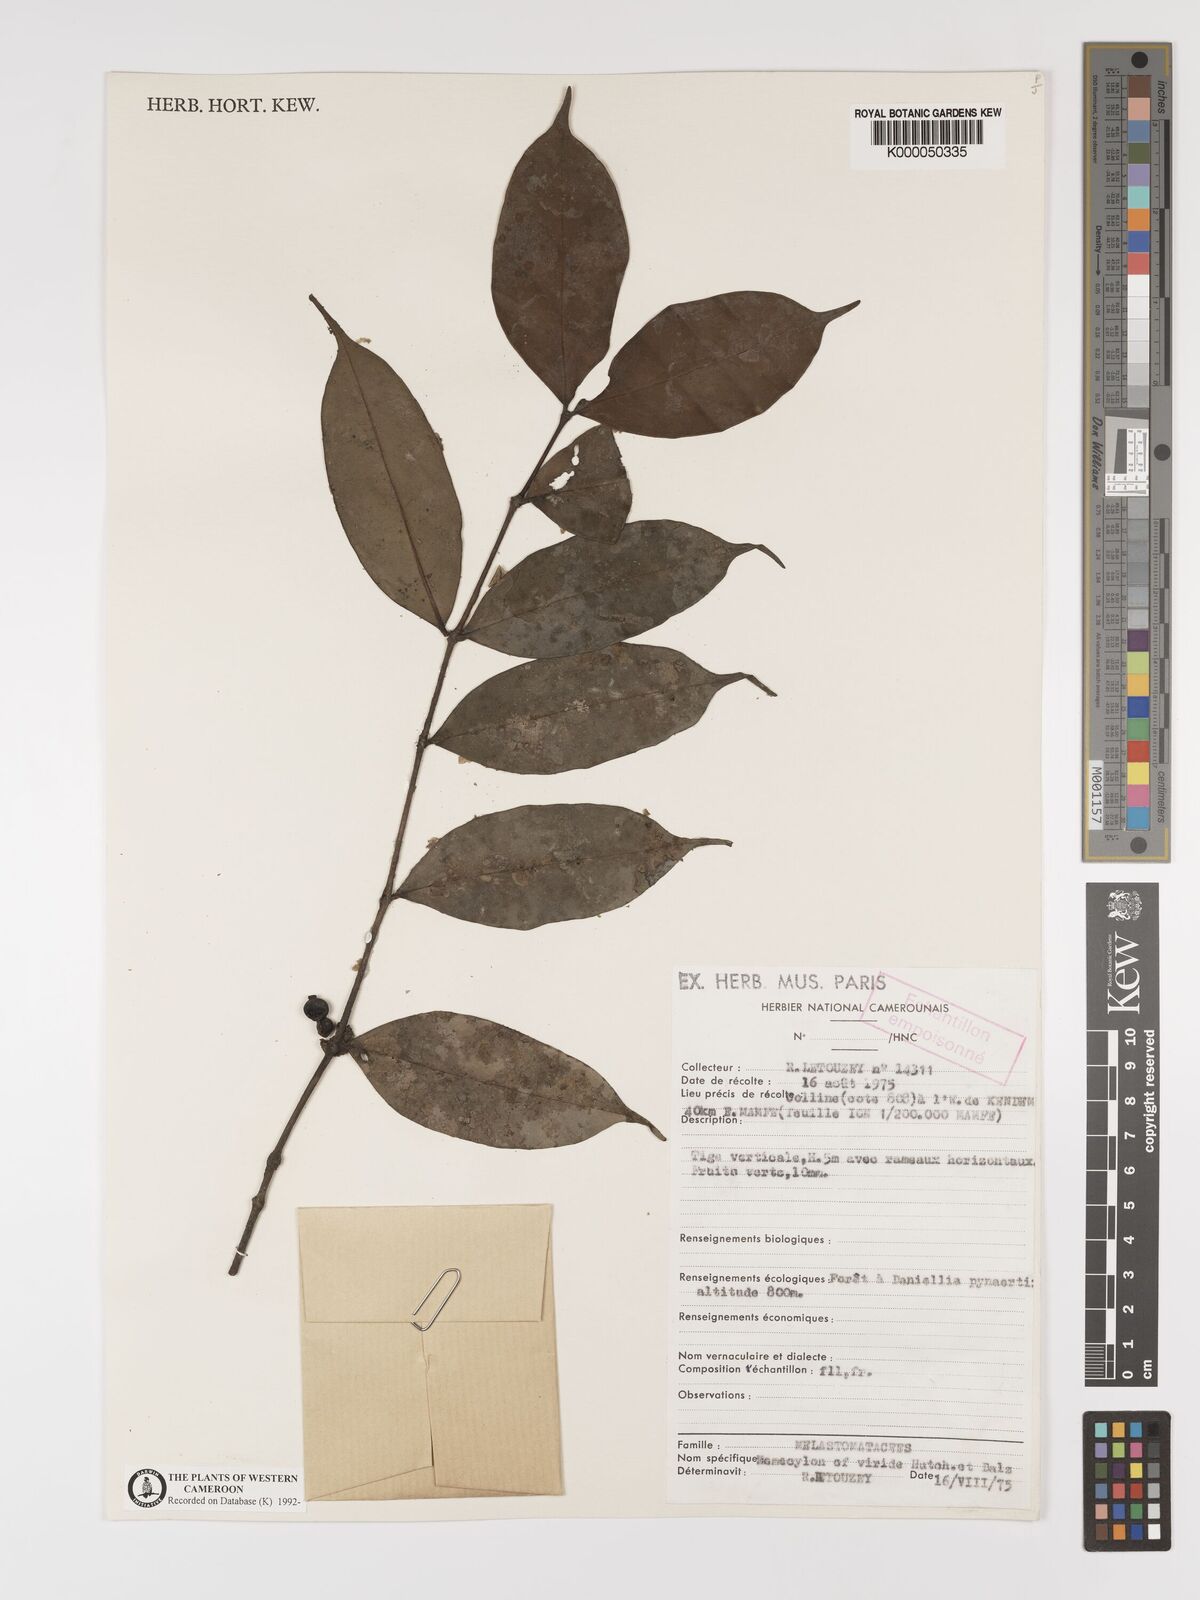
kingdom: Plantae
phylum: Tracheophyta
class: Magnoliopsida
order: Myrtales
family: Melastomataceae
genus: Memecylon
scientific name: Memecylon viride
